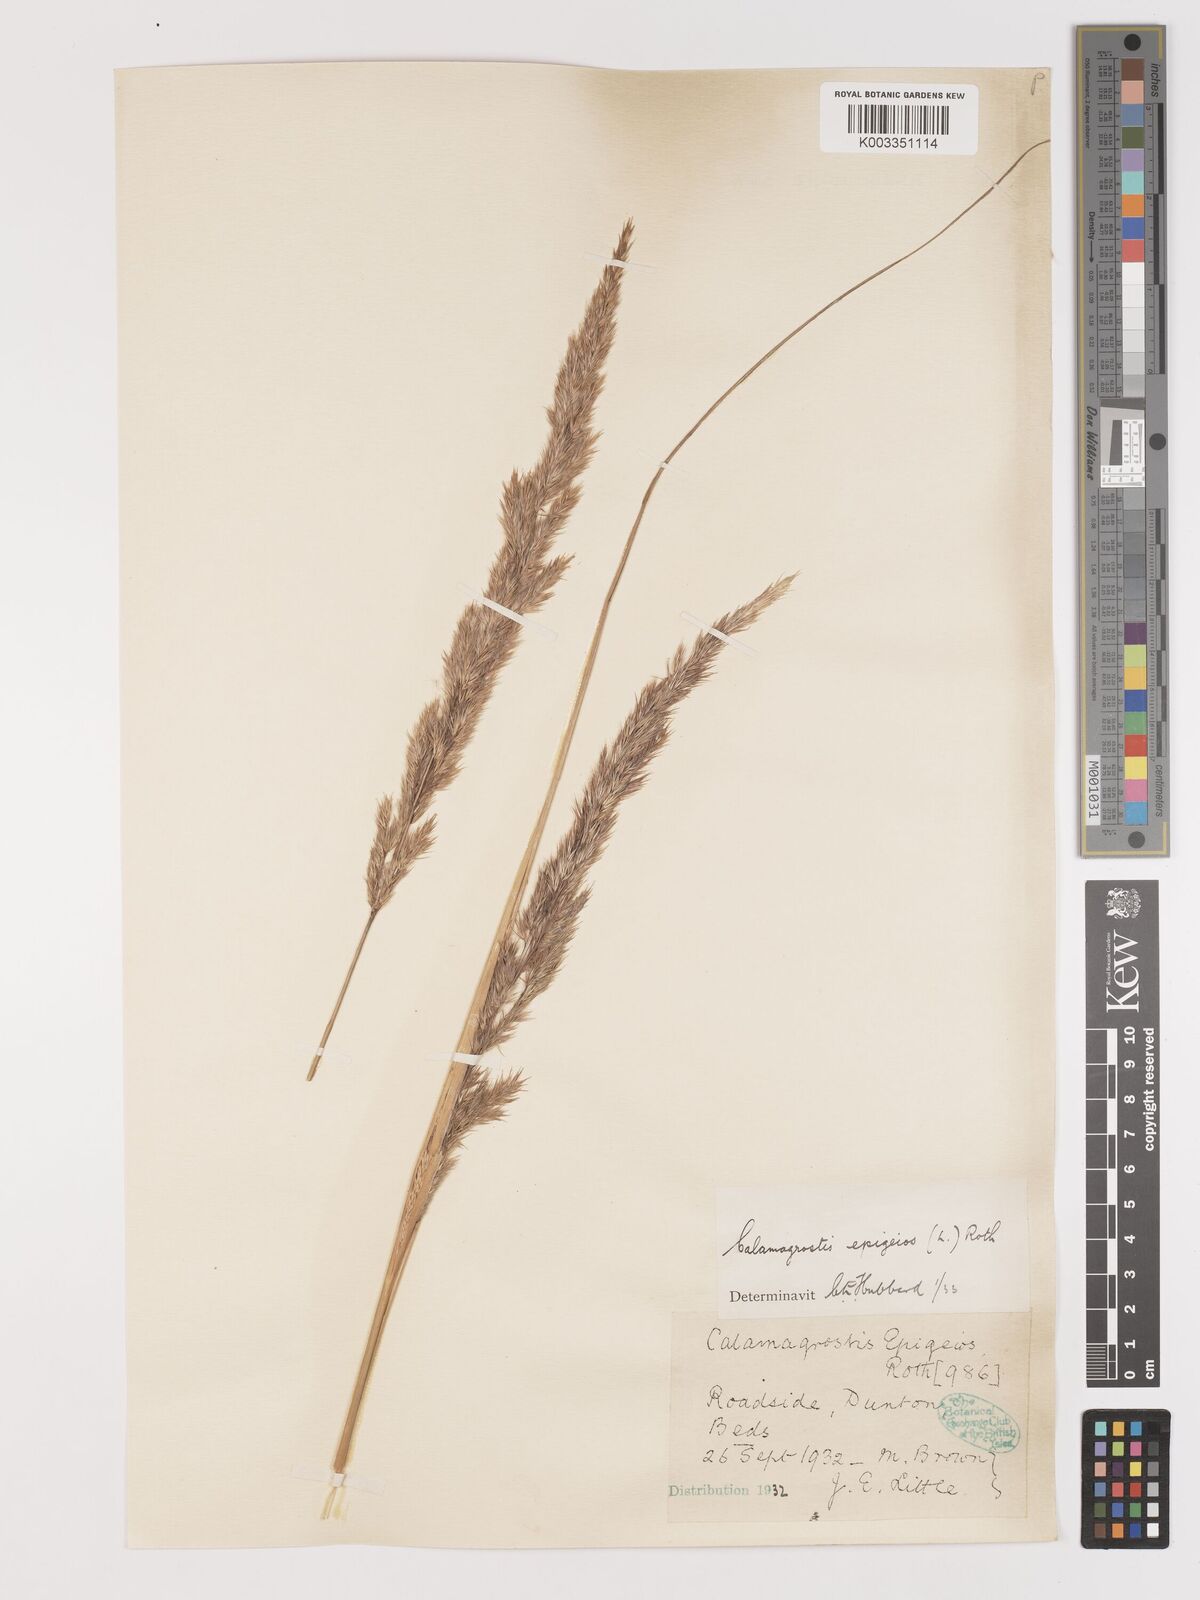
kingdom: Plantae
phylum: Tracheophyta
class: Liliopsida
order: Poales
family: Poaceae
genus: Calamagrostis
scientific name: Calamagrostis
